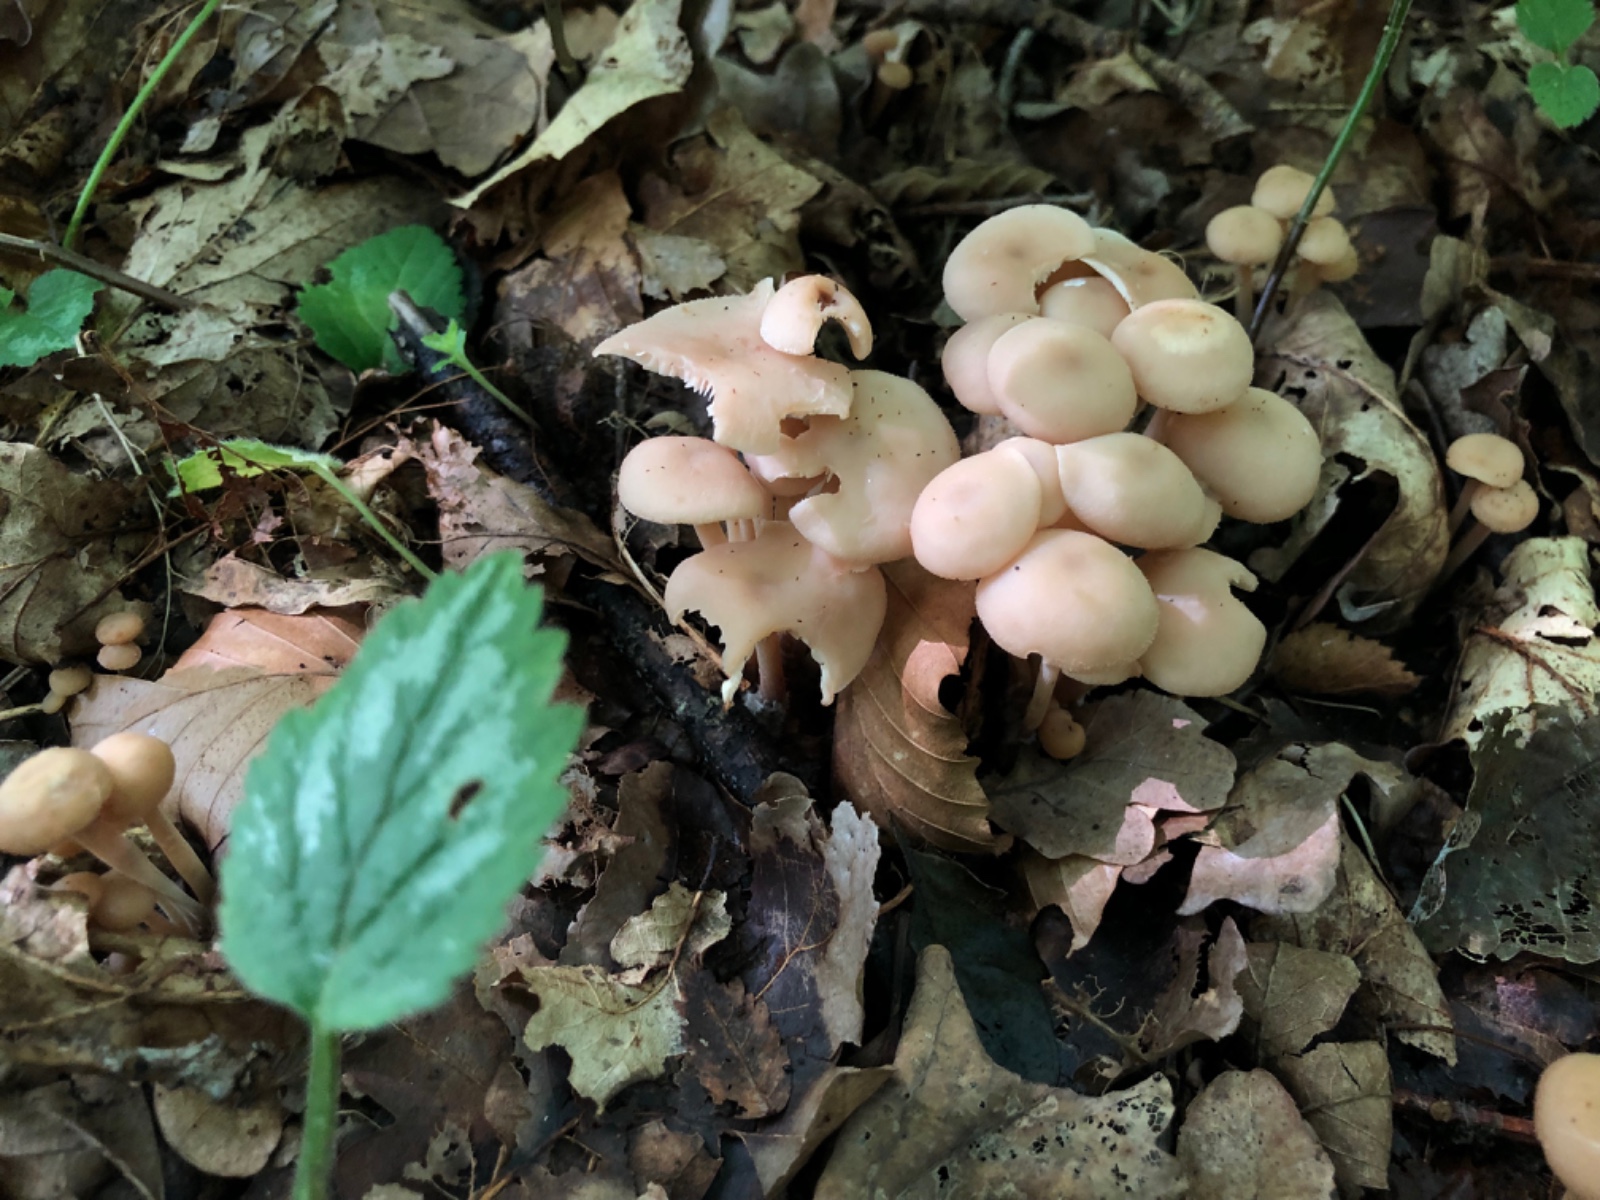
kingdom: Fungi
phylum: Basidiomycota
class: Agaricomycetes
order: Agaricales
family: Omphalotaceae
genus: Collybiopsis
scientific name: Collybiopsis confluens
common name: knippe-fladhat
